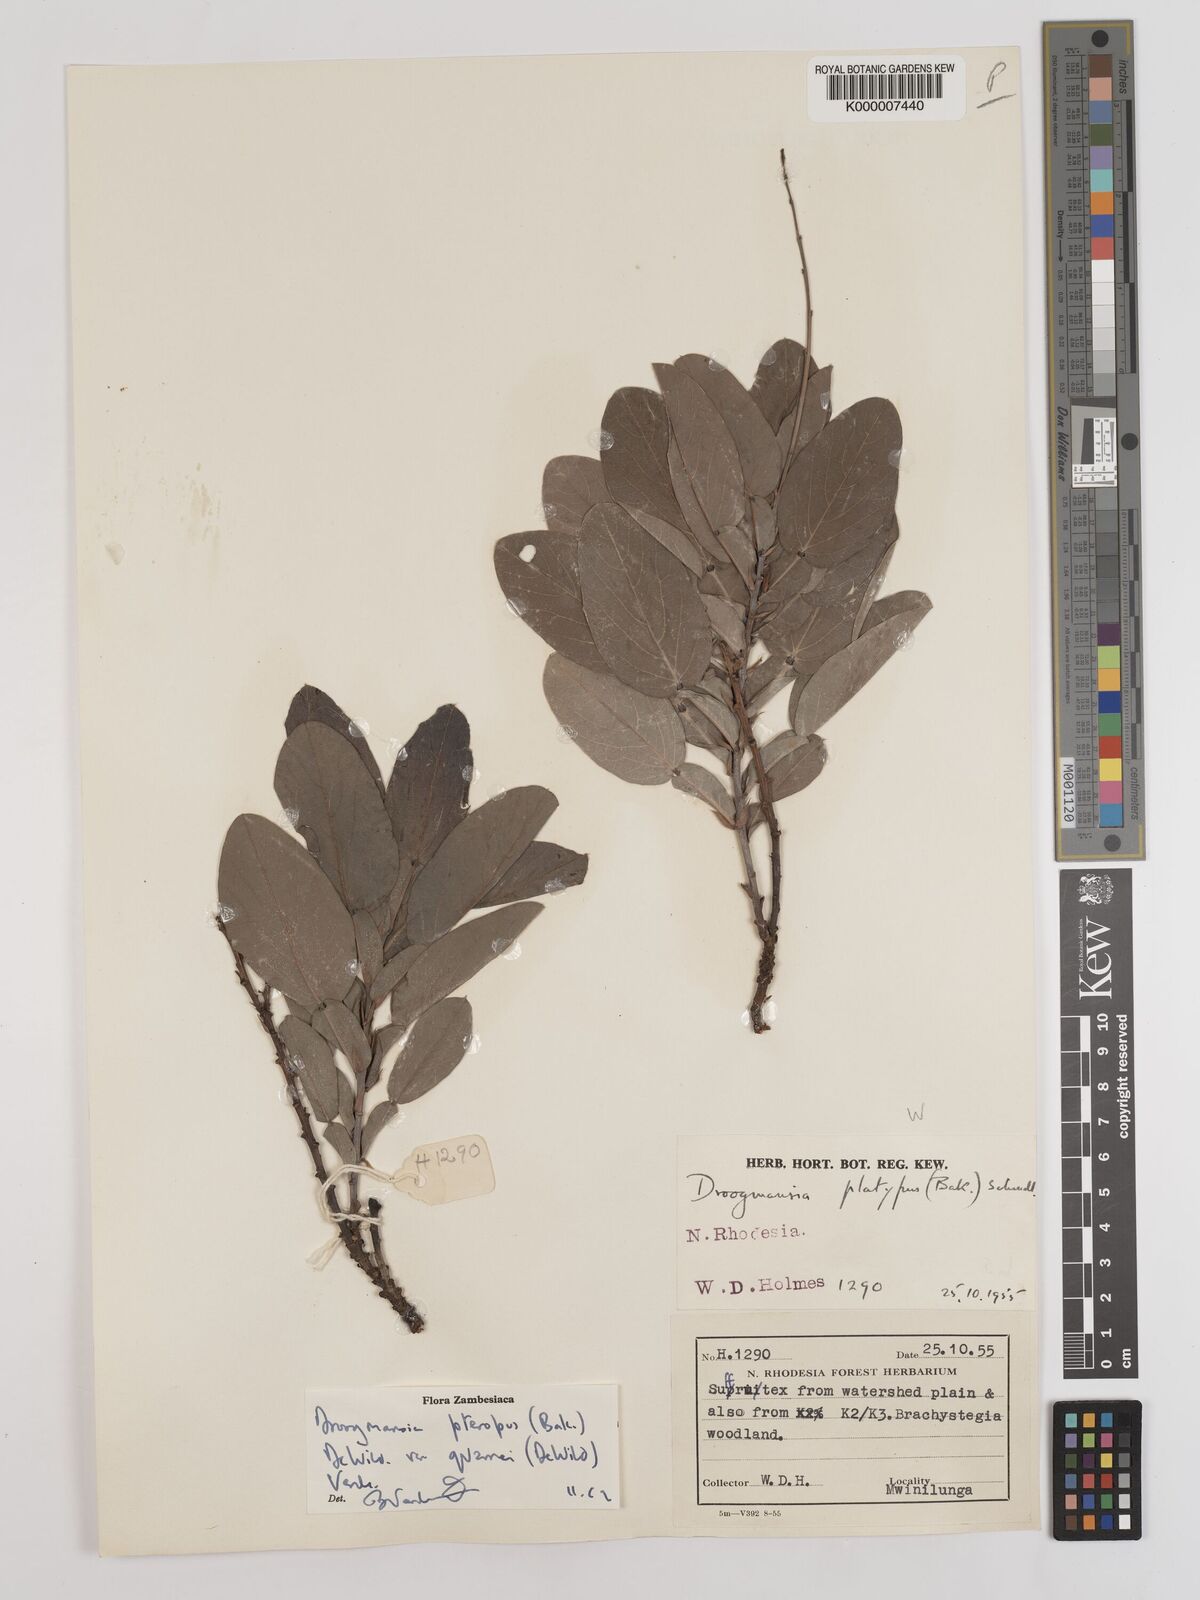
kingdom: Plantae
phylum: Tracheophyta
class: Magnoliopsida
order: Fabales
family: Fabaceae
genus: Droogmansia
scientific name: Droogmansia pteropus
